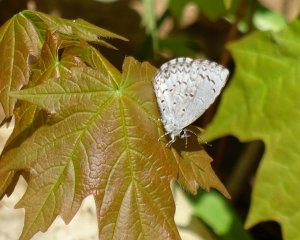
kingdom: Animalia
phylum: Arthropoda
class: Insecta
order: Lepidoptera
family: Lycaenidae
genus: Celastrina
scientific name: Celastrina lucia
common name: Northern Spring Azure
